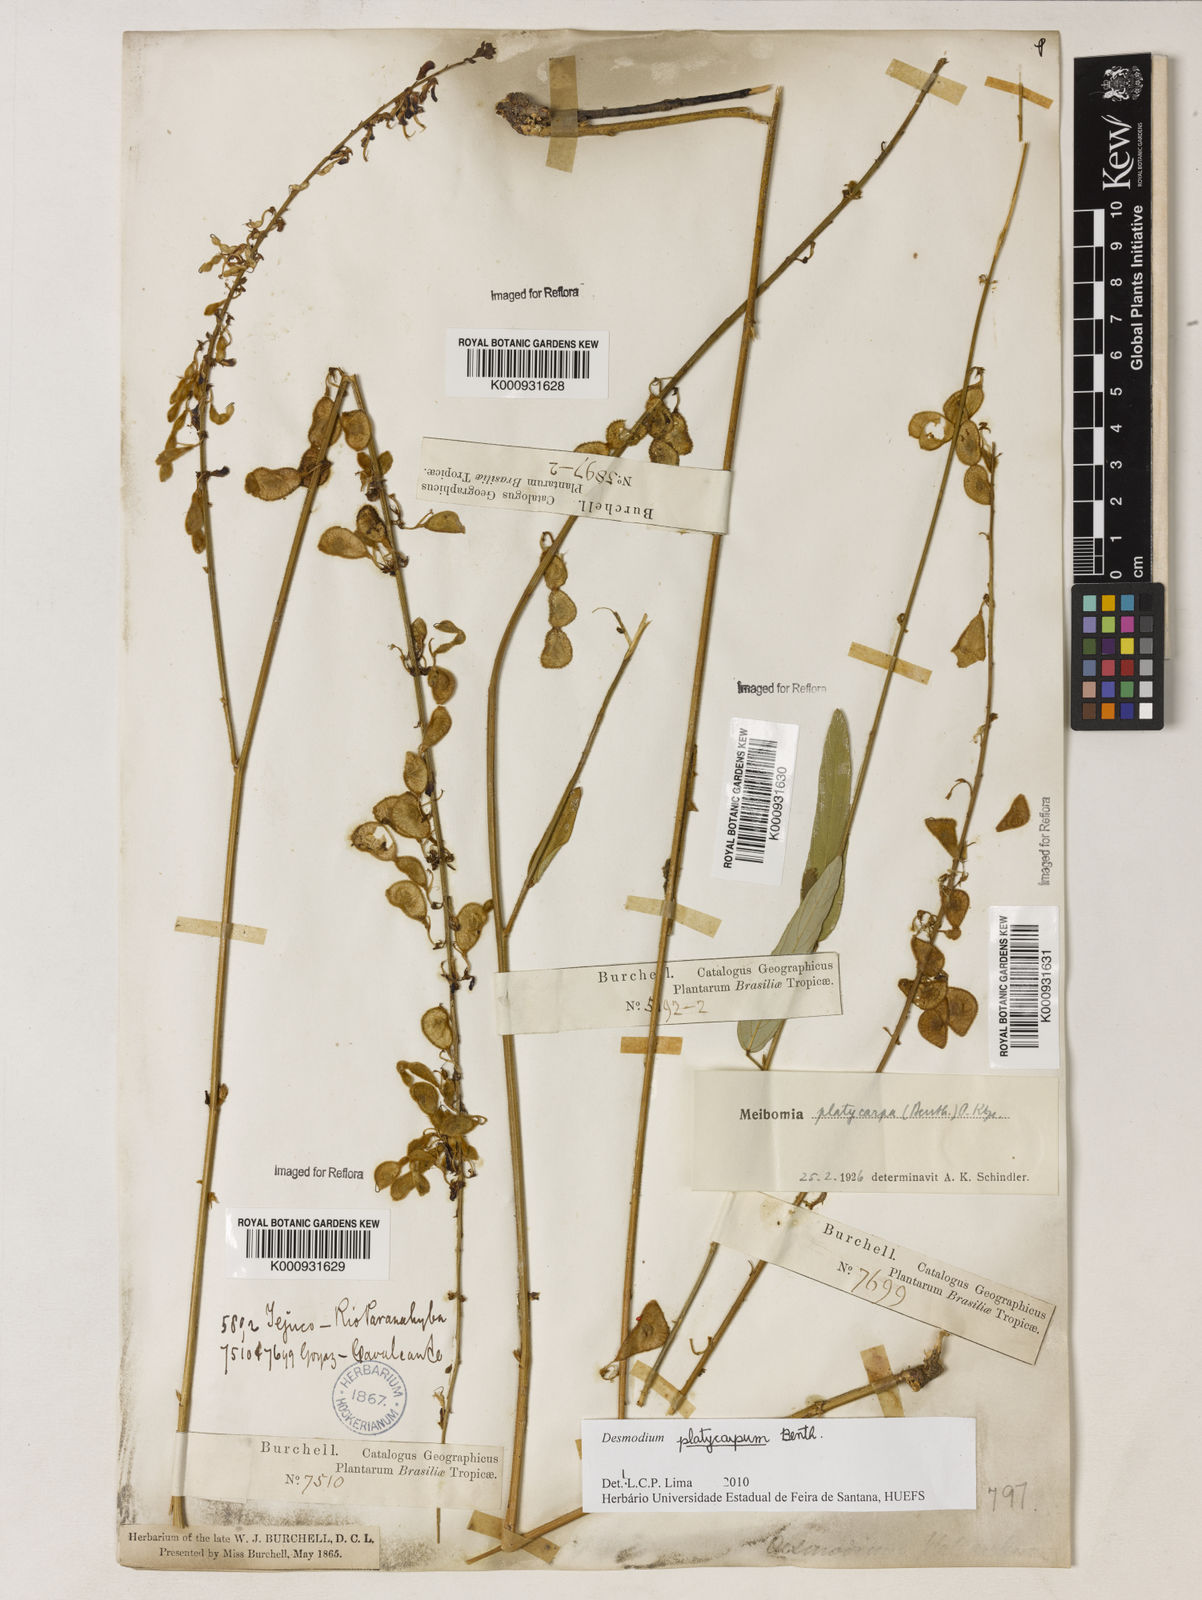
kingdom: Plantae
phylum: Tracheophyta
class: Magnoliopsida
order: Fabales
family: Fabaceae
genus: Desmodium
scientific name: Desmodium platycarpum
